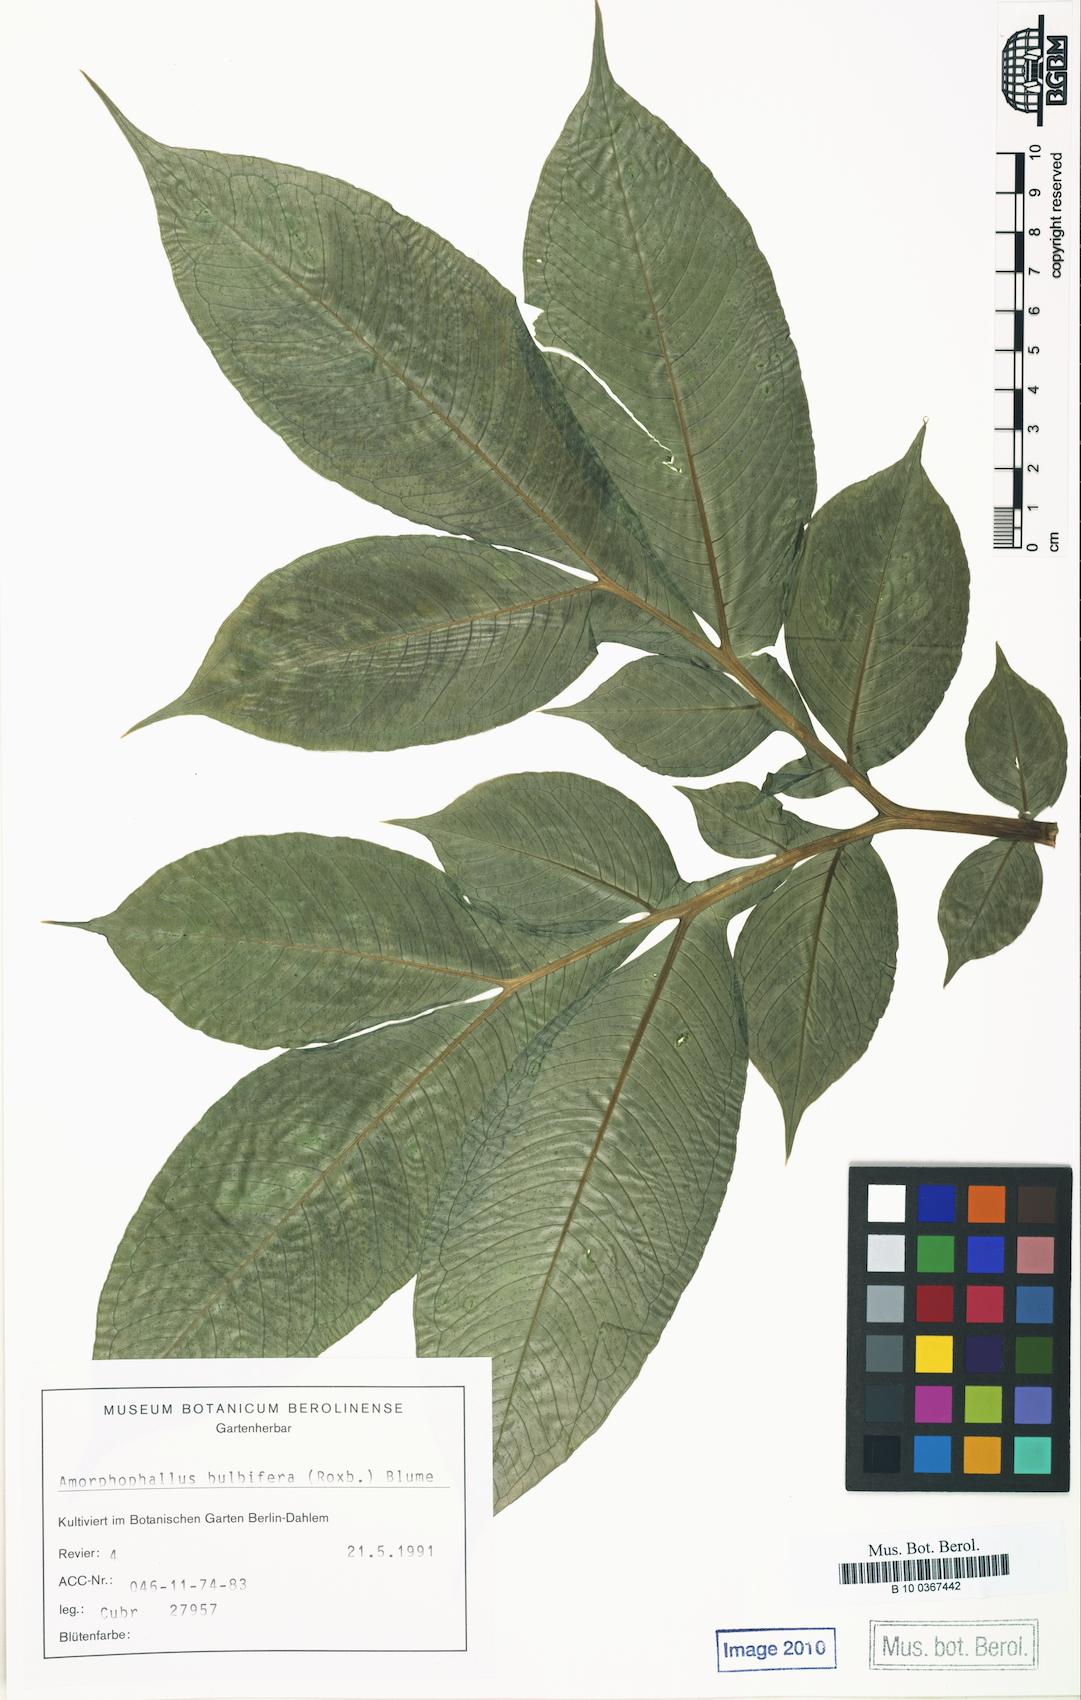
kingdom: Plantae
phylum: Tracheophyta
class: Liliopsida
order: Alismatales
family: Araceae
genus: Amorphophallus
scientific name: Amorphophallus bulbifer
